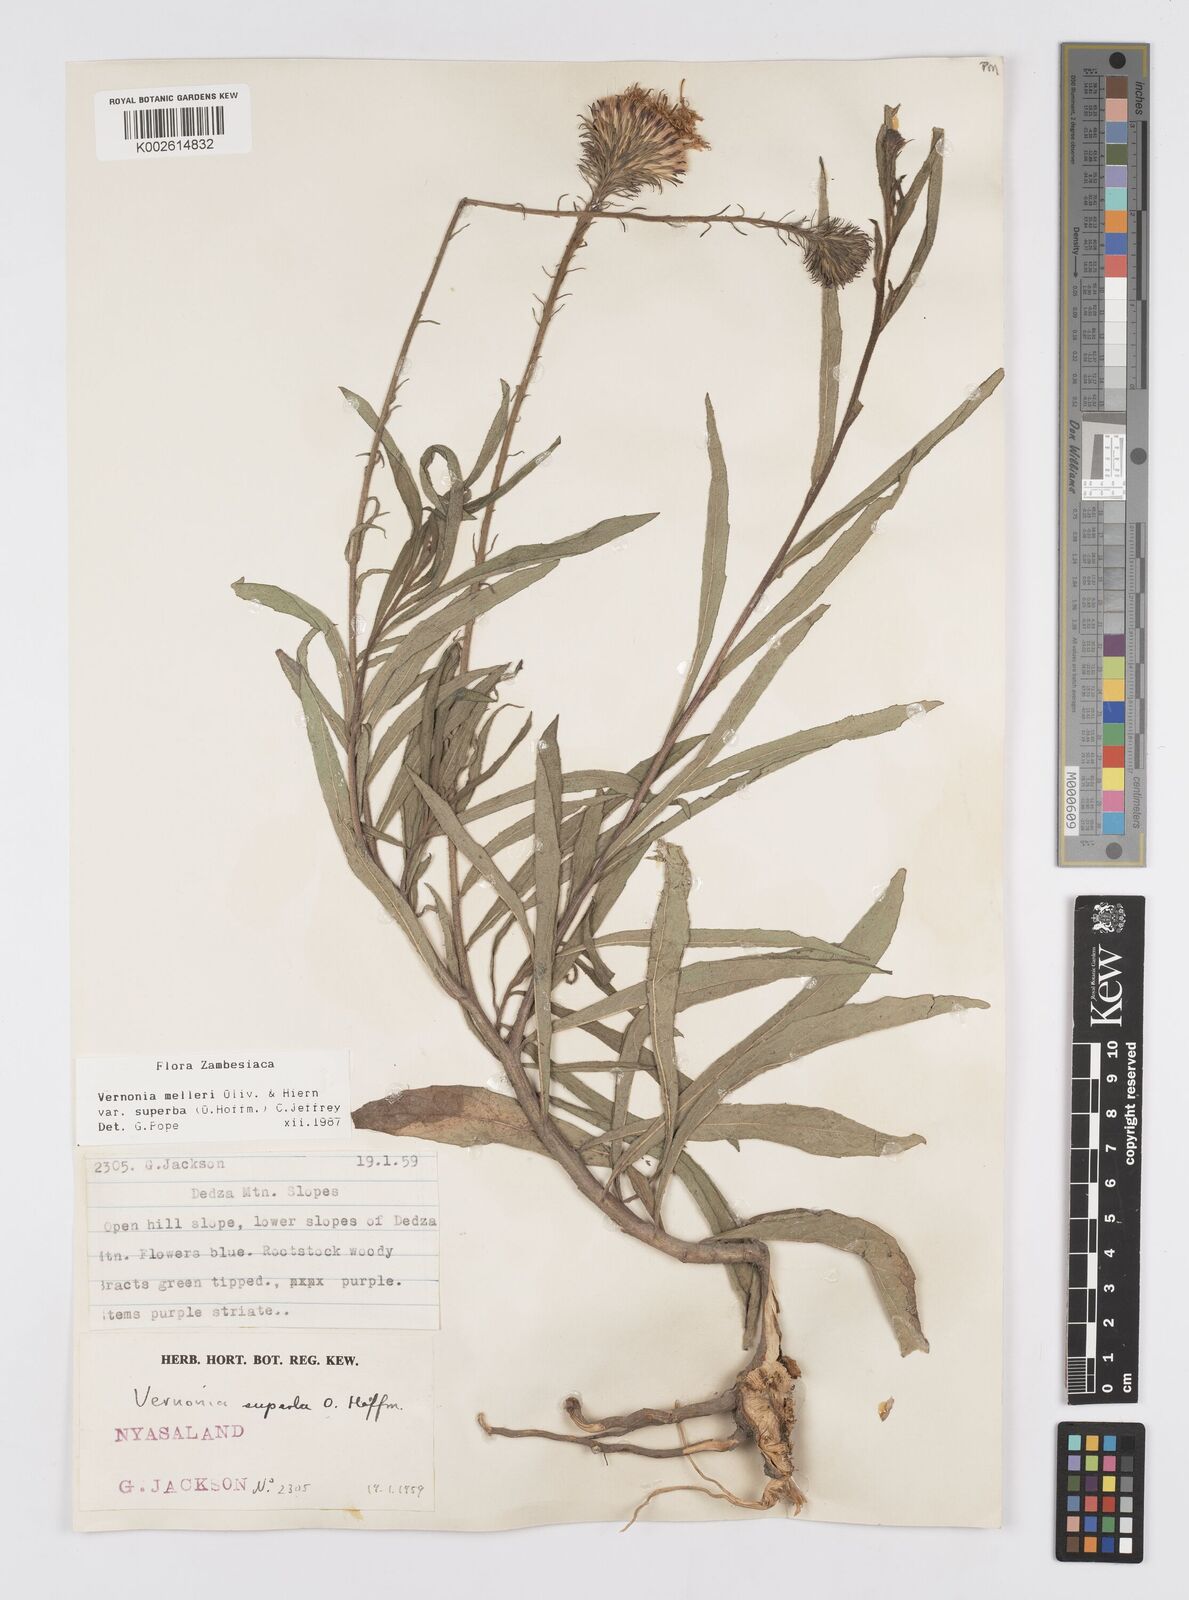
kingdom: Plantae
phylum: Tracheophyta
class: Magnoliopsida
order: Asterales
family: Asteraceae
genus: Linzia
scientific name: Linzia melleri
